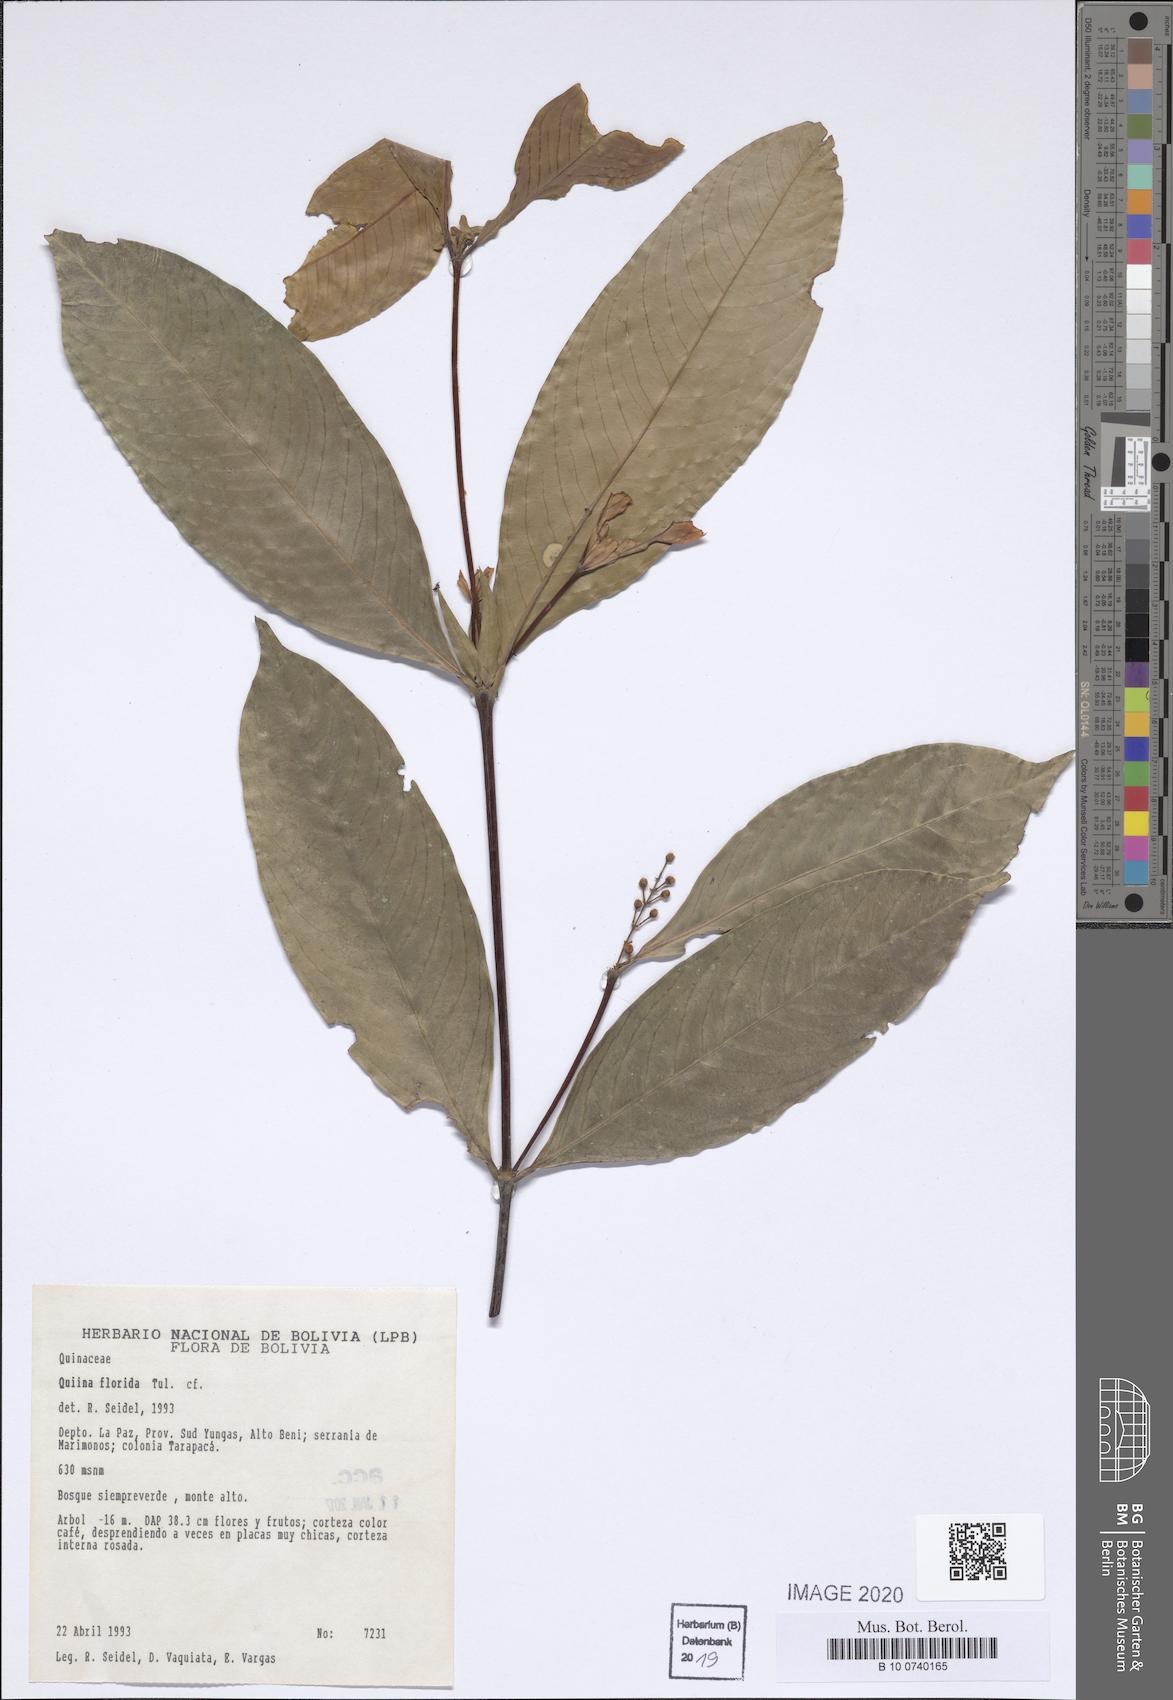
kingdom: Plantae
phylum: Tracheophyta
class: Magnoliopsida
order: Malpighiales
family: Quiinaceae
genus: Quiina
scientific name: Quiina florida
